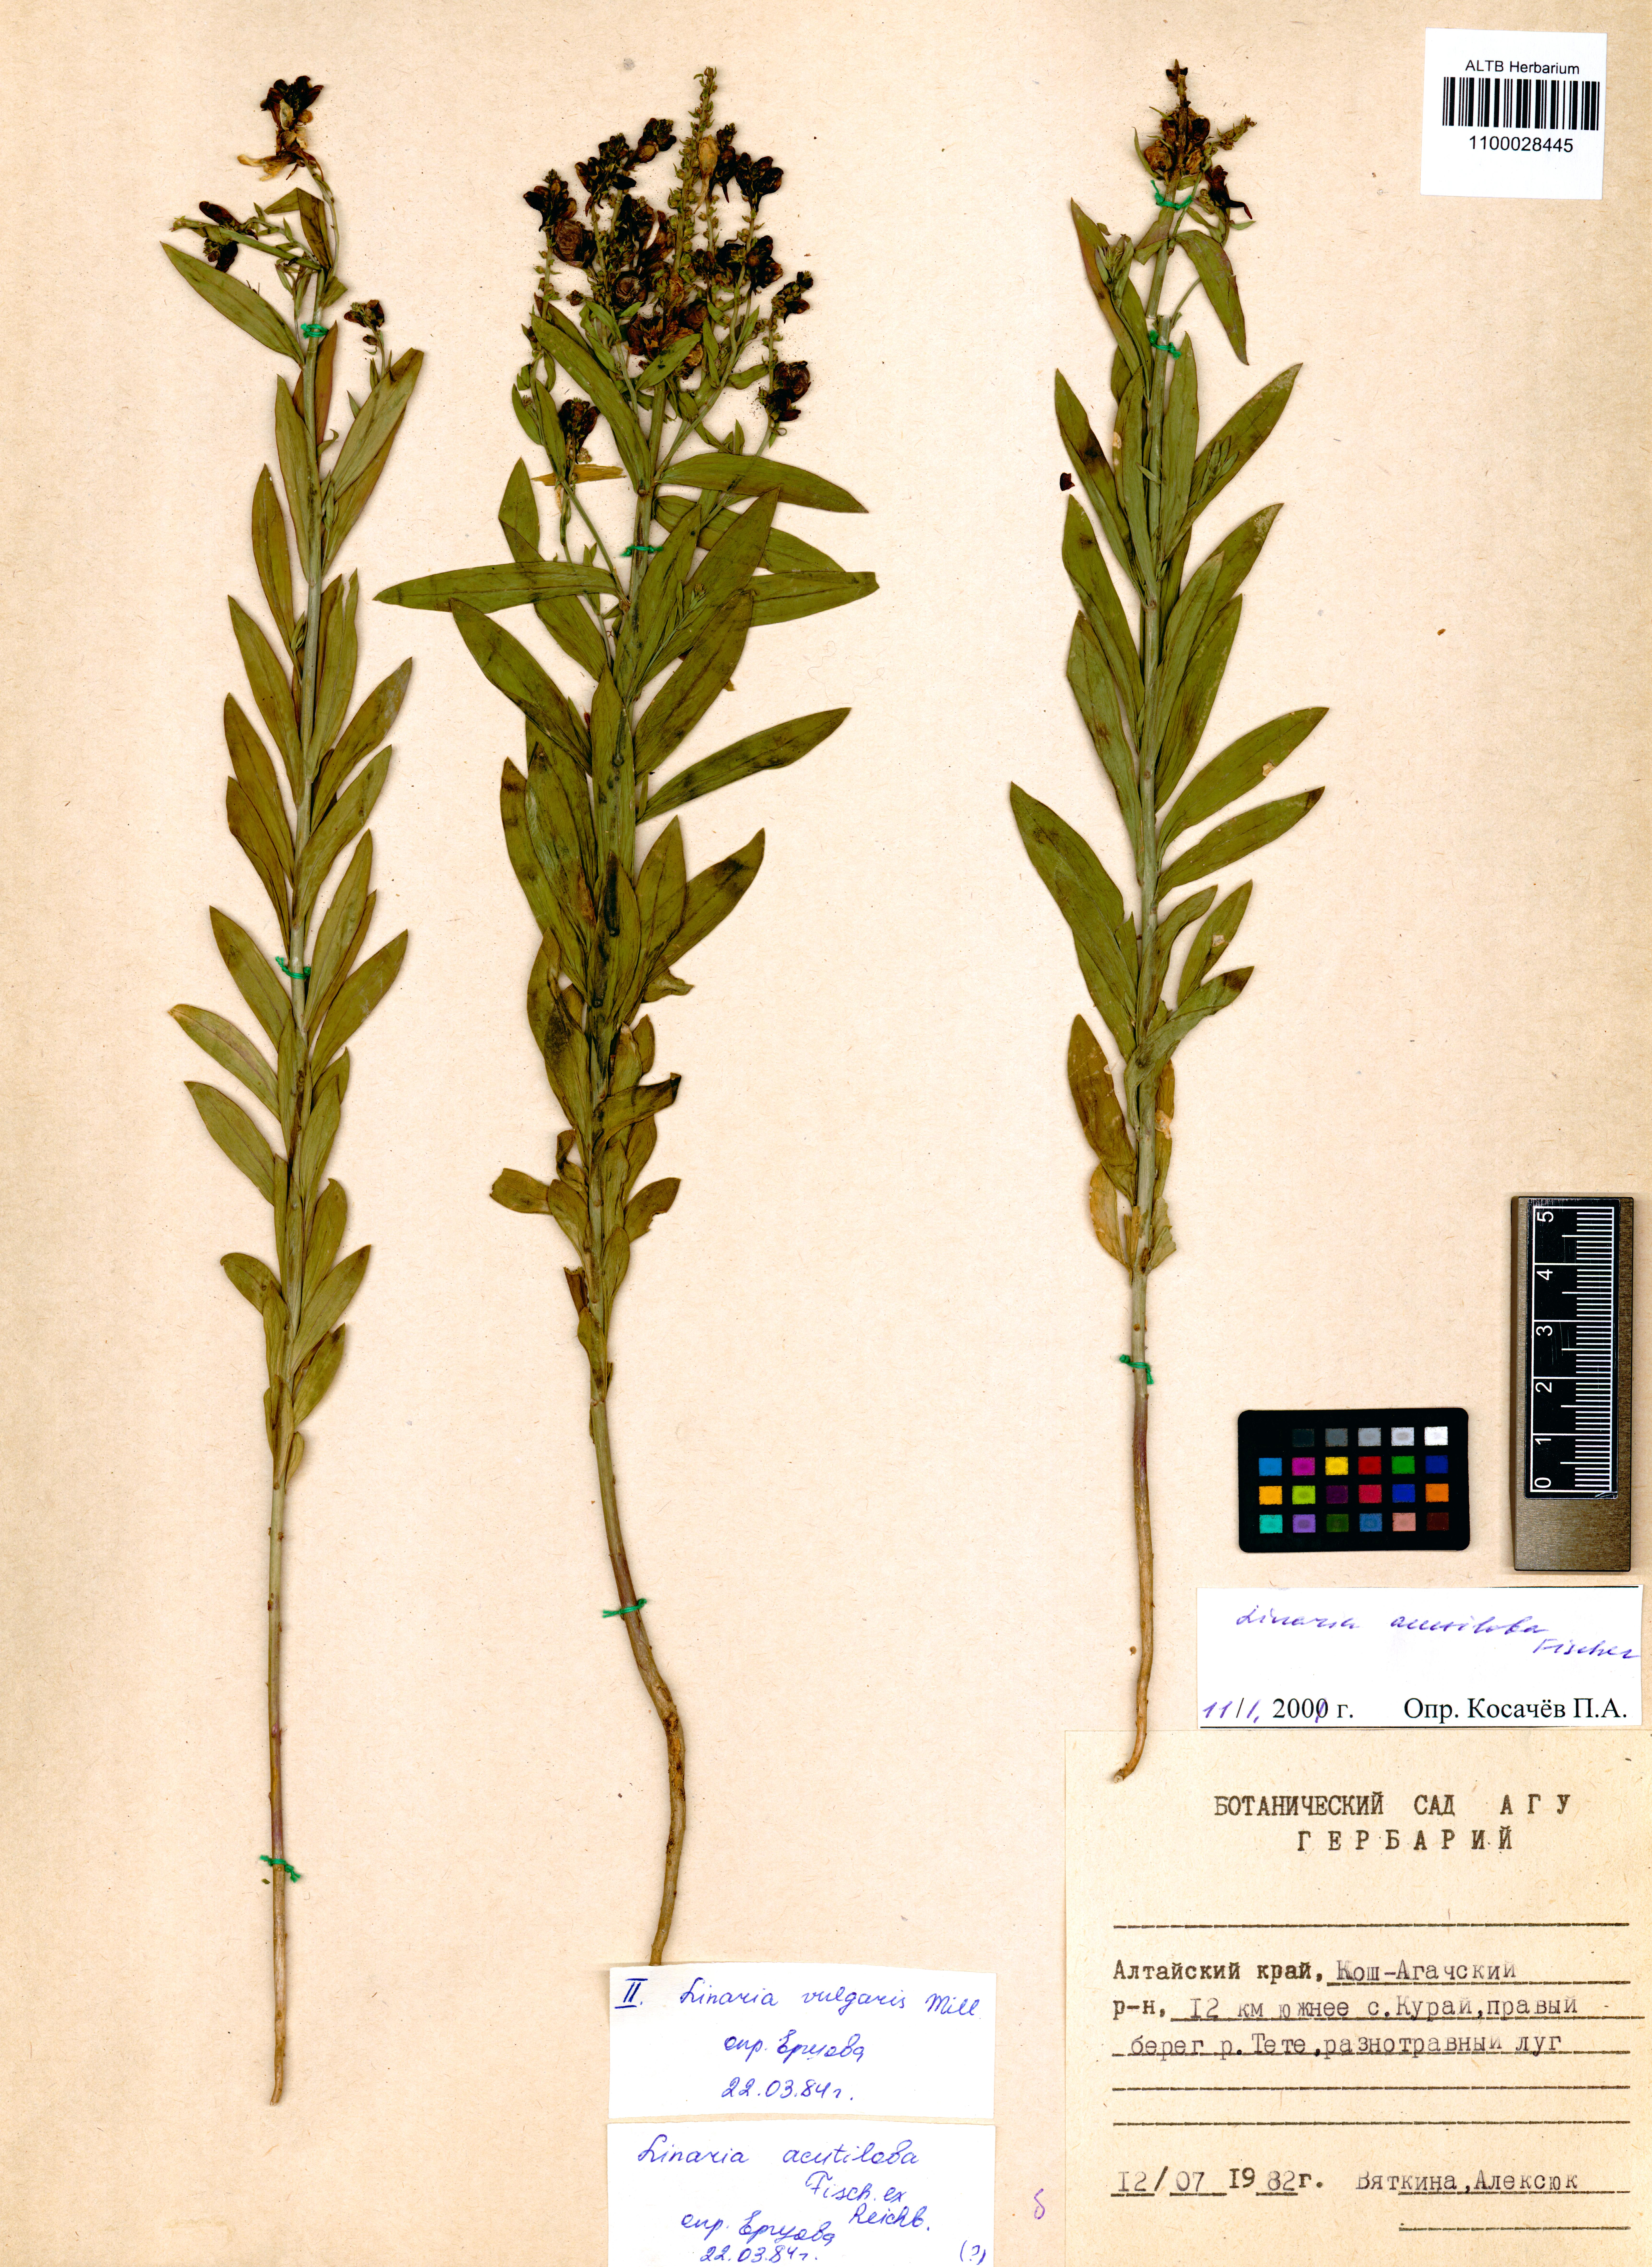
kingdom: Plantae
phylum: Tracheophyta
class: Magnoliopsida
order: Lamiales
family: Plantaginaceae
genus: Linaria
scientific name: Linaria acutiloba
